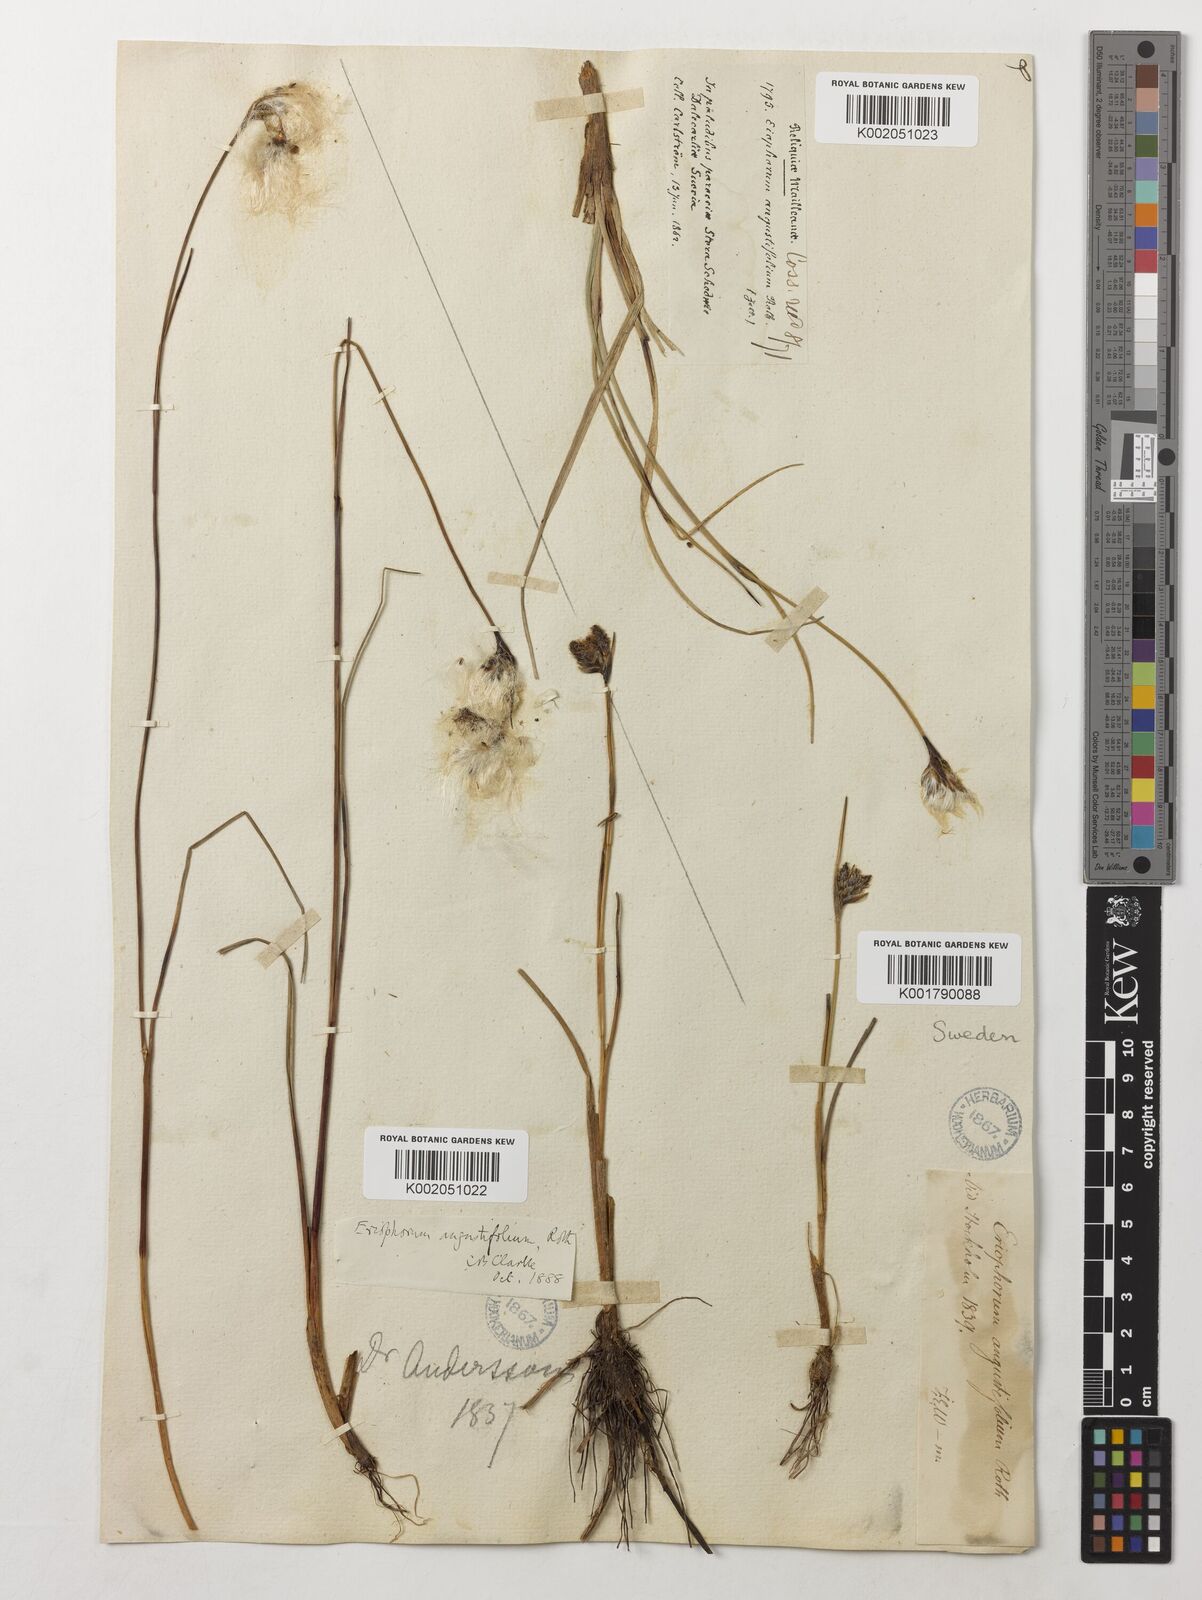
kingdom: Plantae
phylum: Tracheophyta
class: Liliopsida
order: Poales
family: Cyperaceae
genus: Eriophorum
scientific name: Eriophorum angustifolium
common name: Common cottongrass
